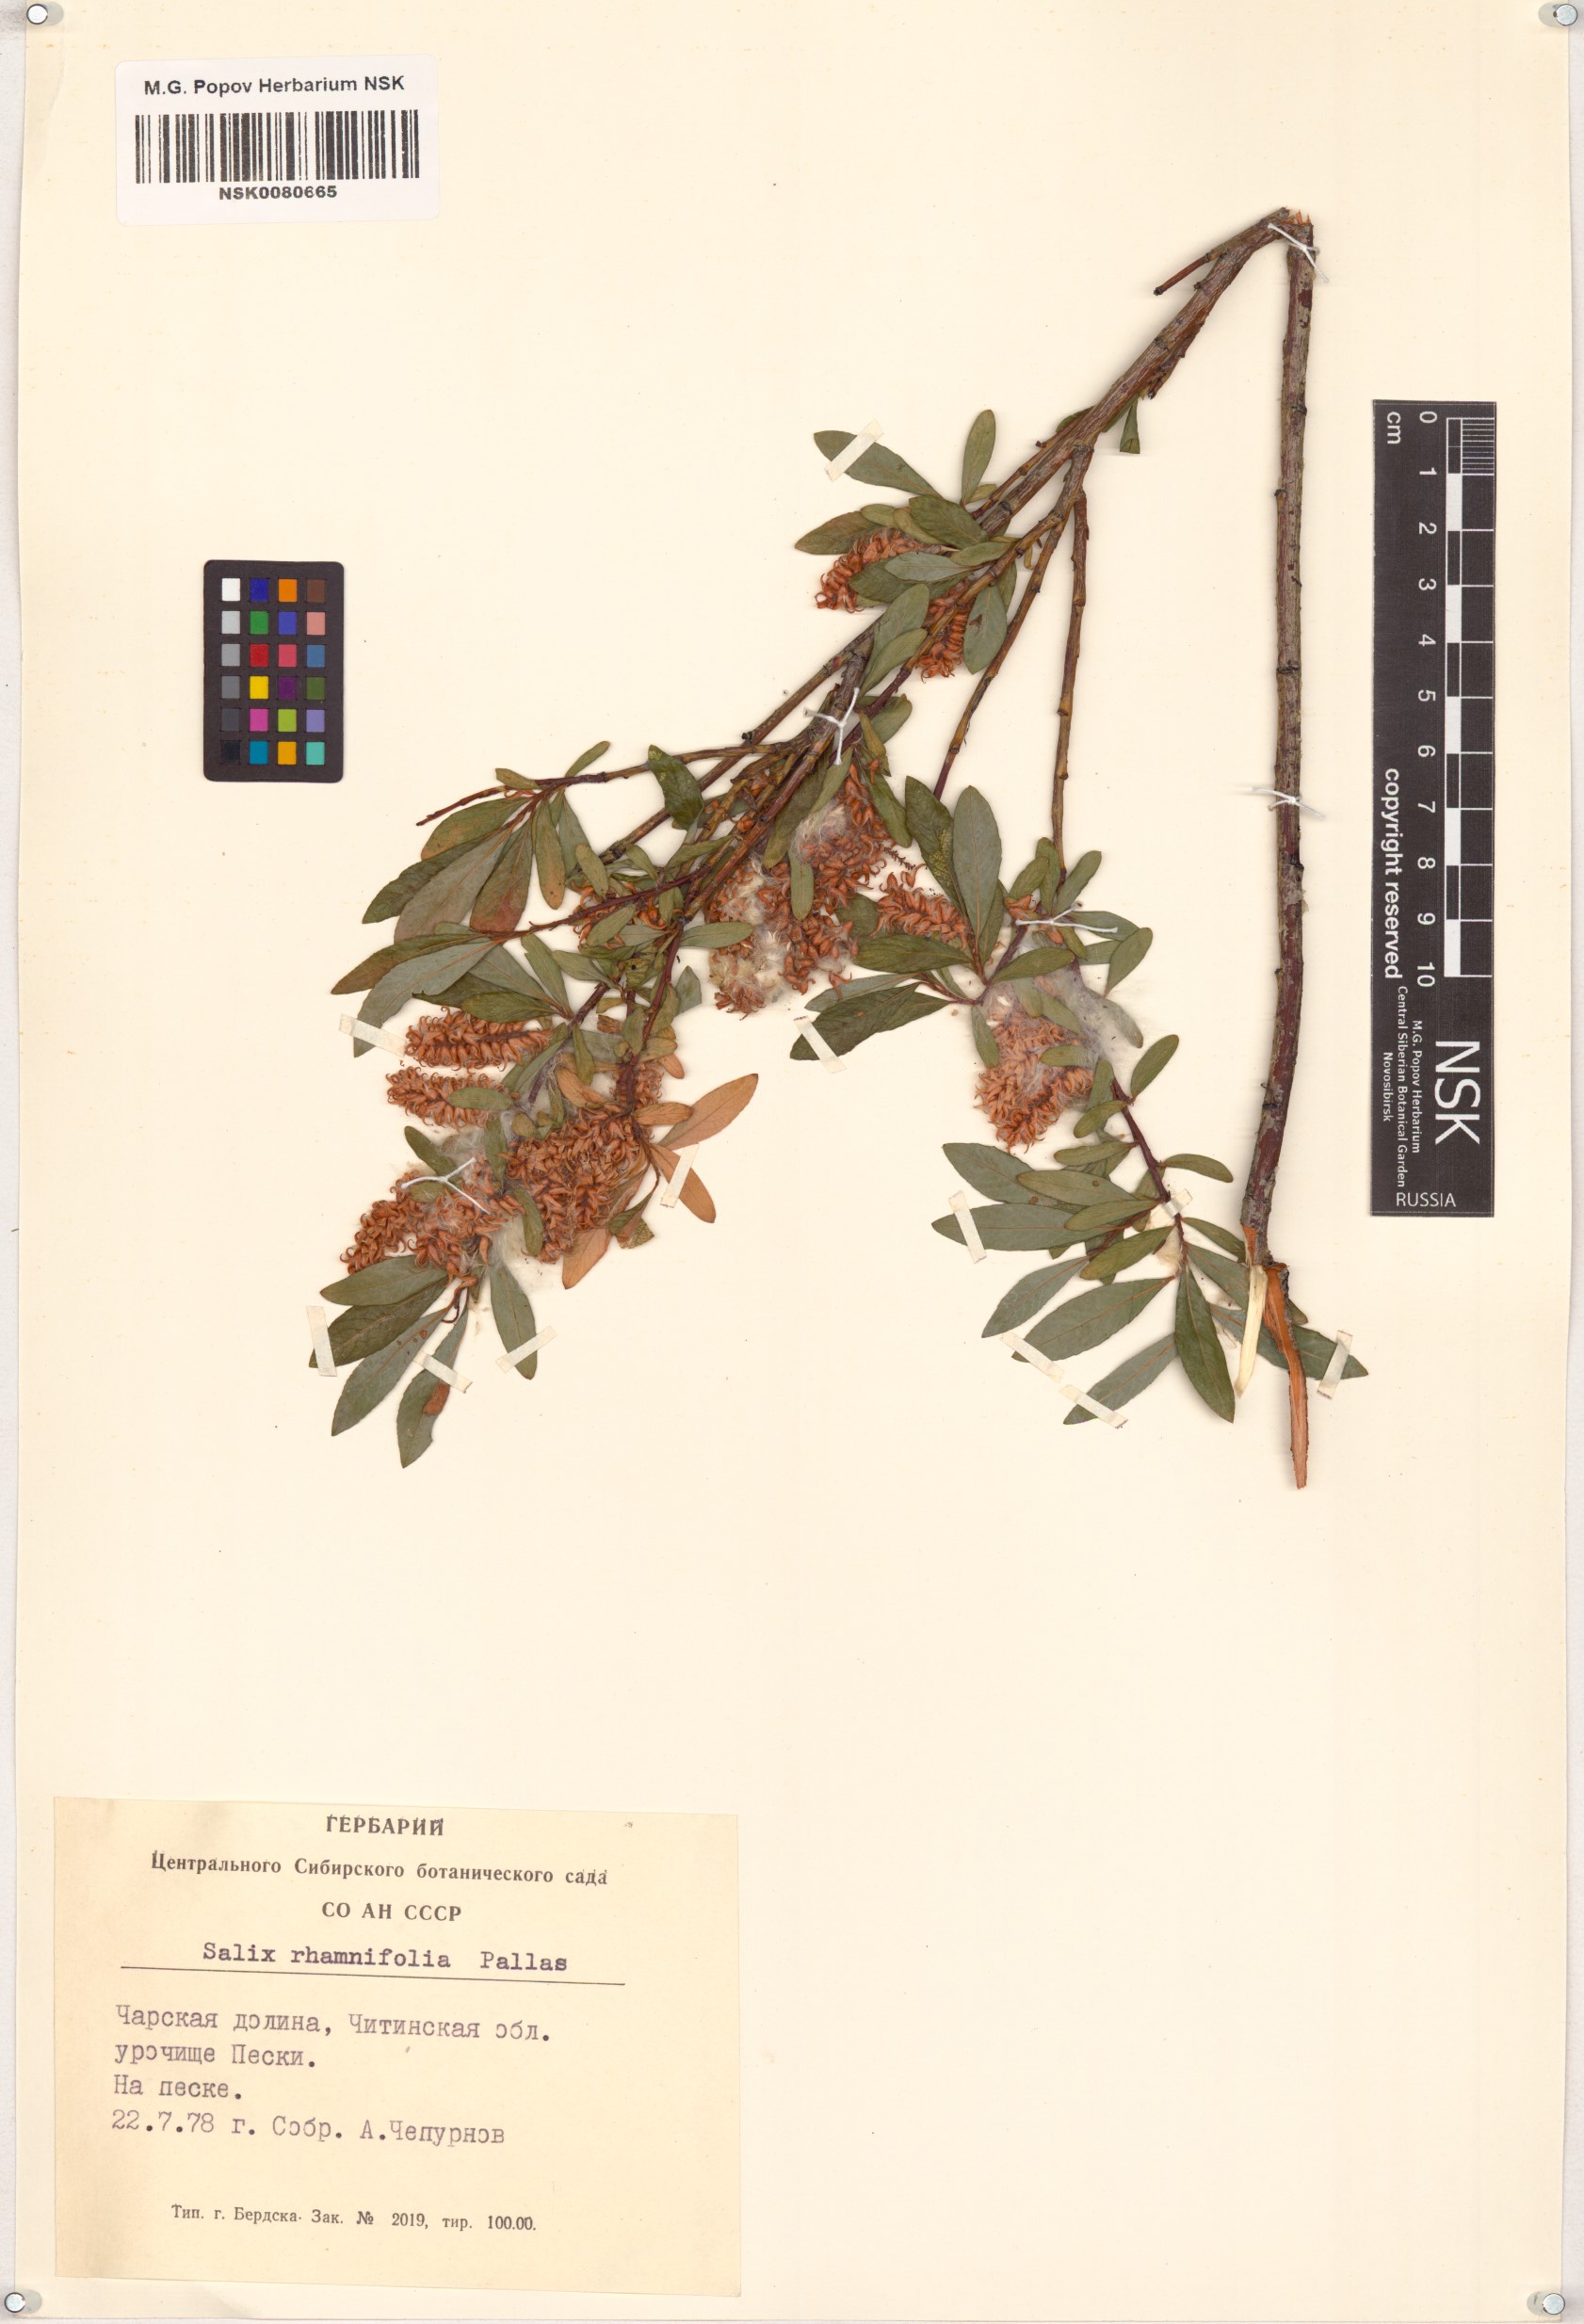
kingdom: Plantae
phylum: Tracheophyta
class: Magnoliopsida
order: Malpighiales
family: Salicaceae
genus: Salix
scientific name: Salix rhamnifolia
